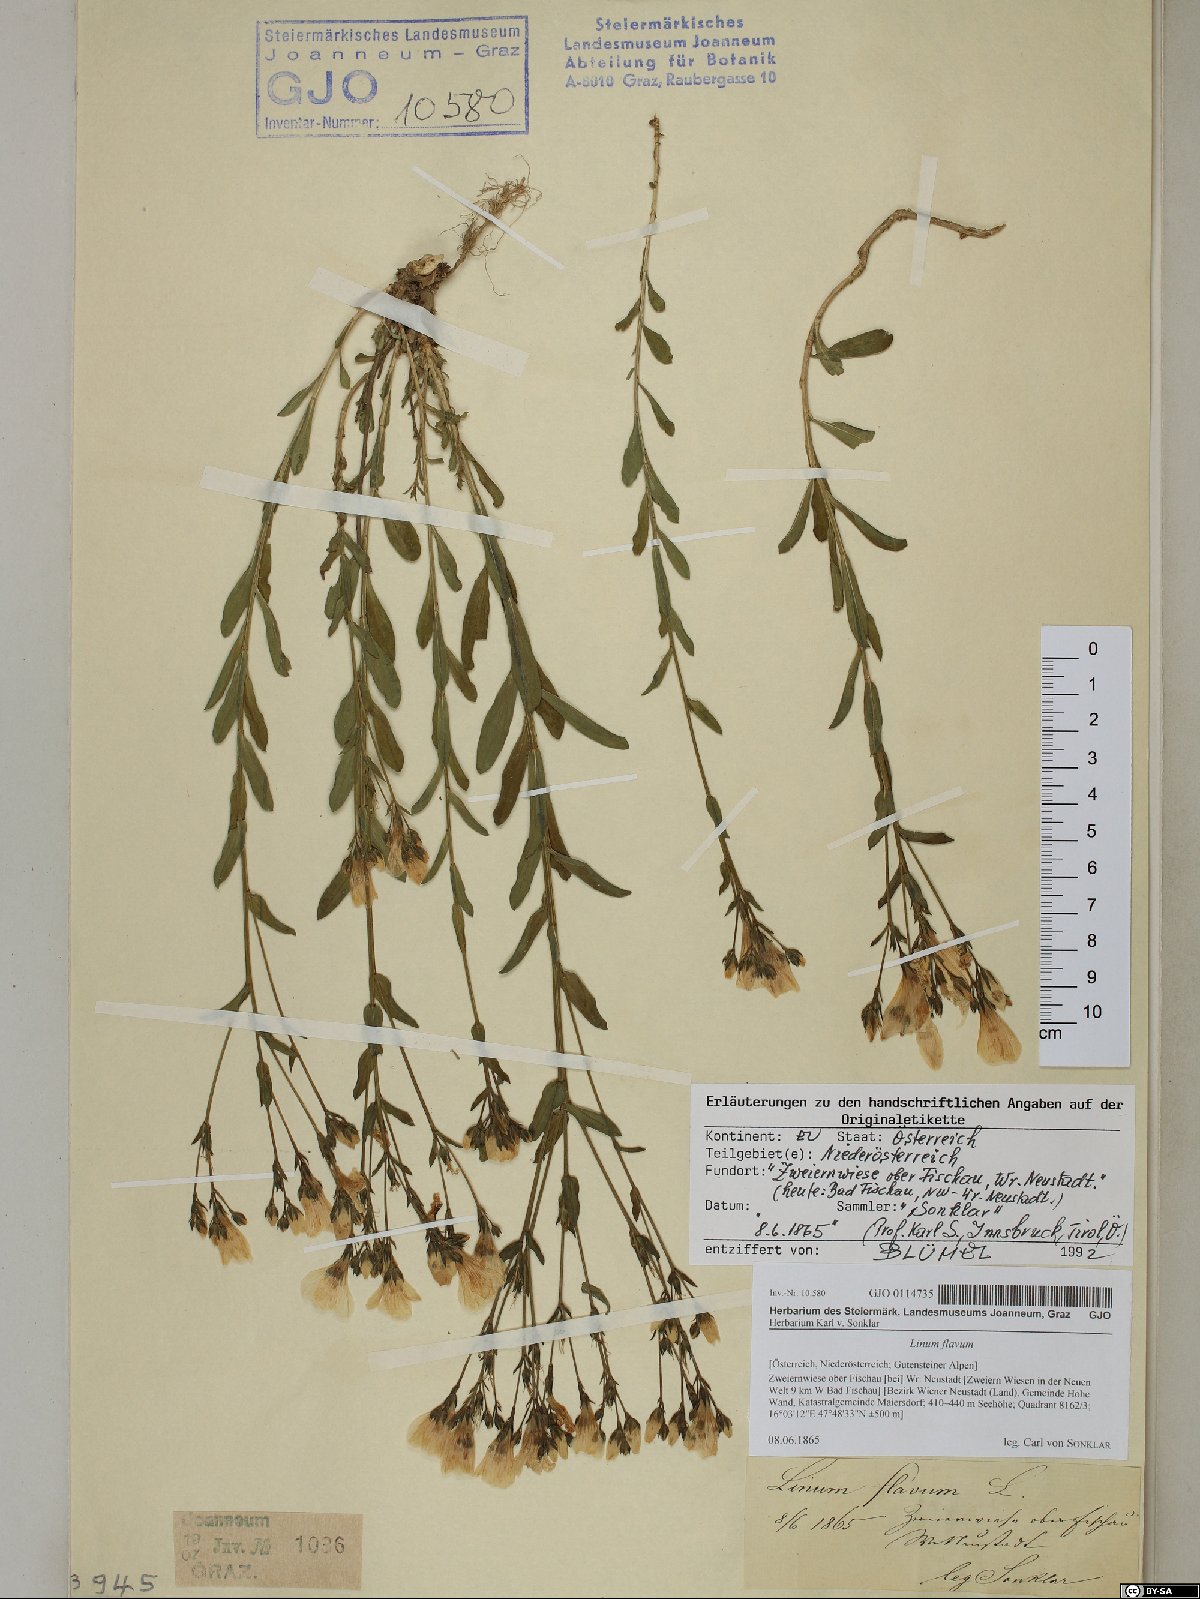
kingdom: Plantae
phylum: Tracheophyta
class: Magnoliopsida
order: Malpighiales
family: Linaceae
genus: Linum
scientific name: Linum flavum
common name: Yellow flax
